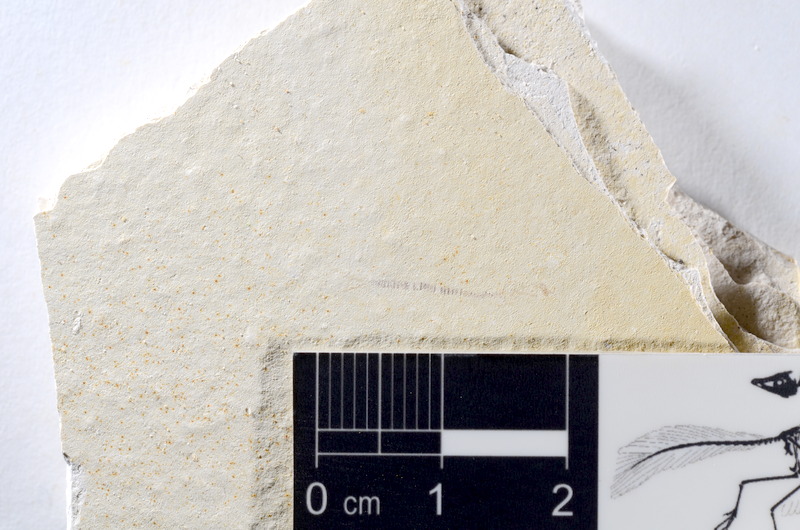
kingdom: Animalia
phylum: Chordata
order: Salmoniformes
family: Orthogonikleithridae
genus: Orthogonikleithrus
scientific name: Orthogonikleithrus hoelli
